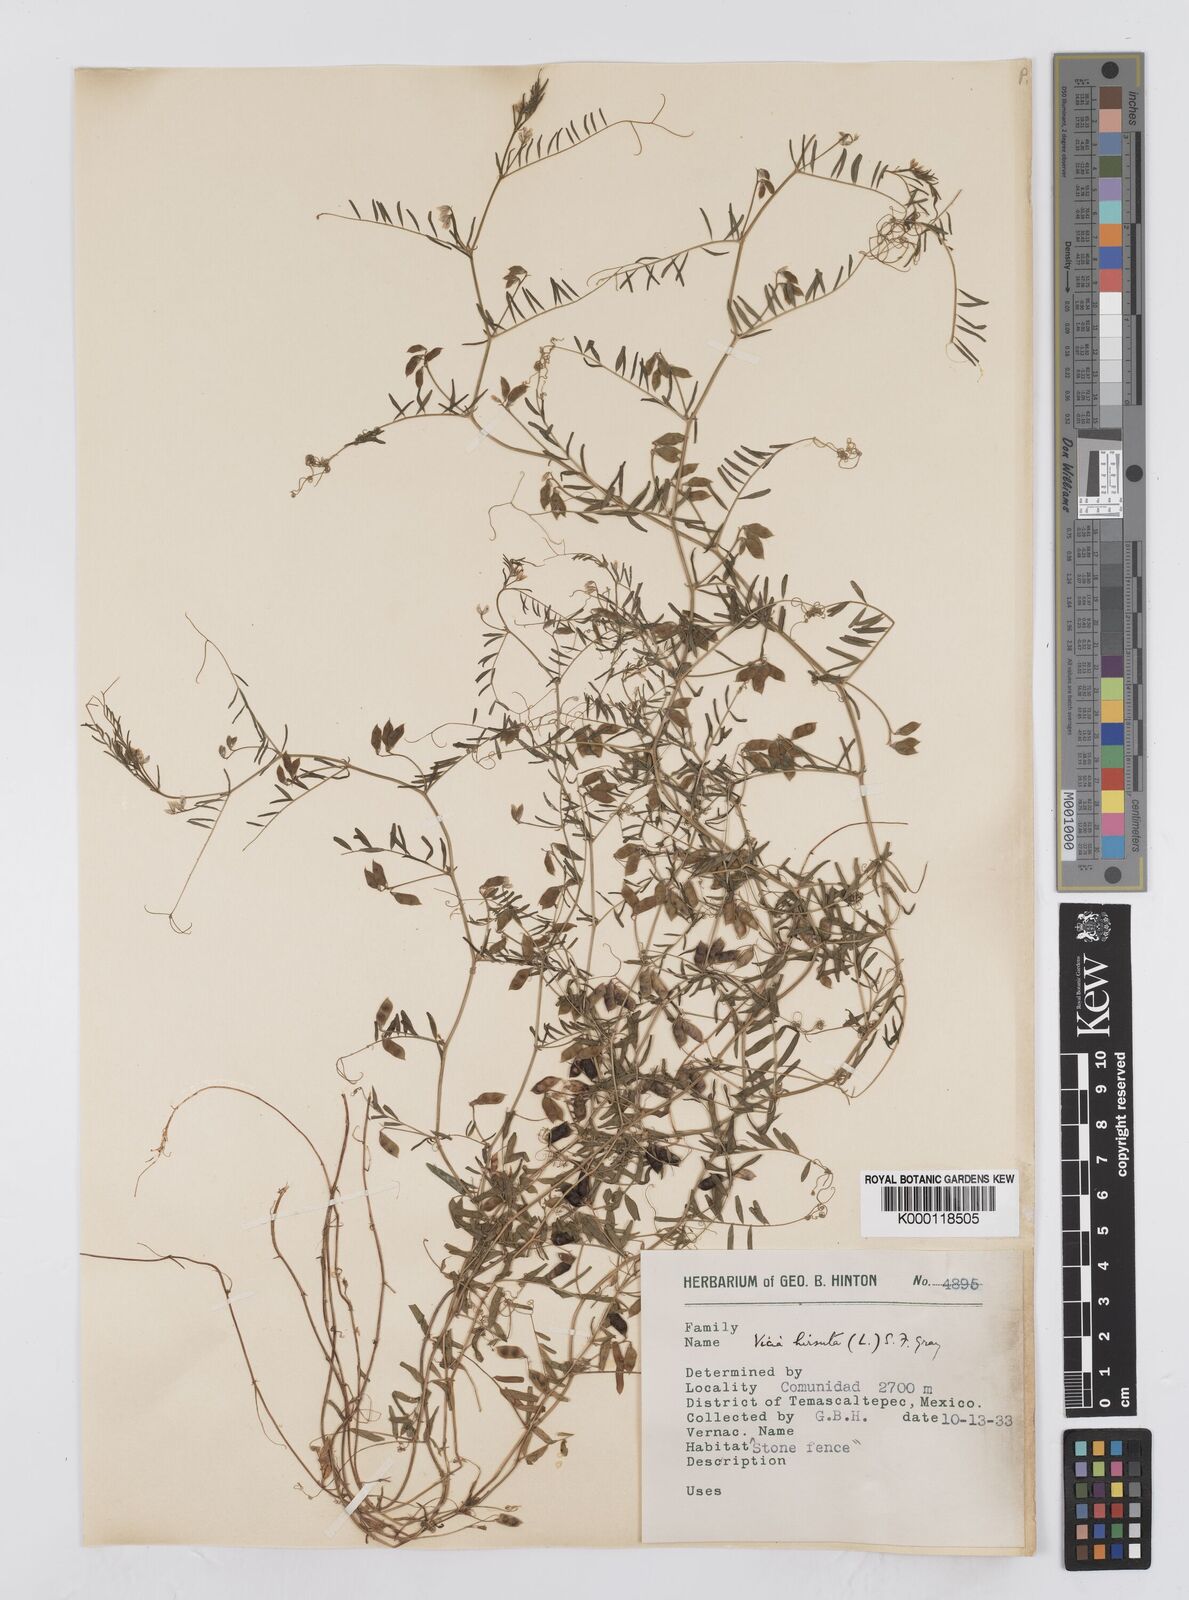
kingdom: Plantae
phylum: Tracheophyta
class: Magnoliopsida
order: Fabales
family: Fabaceae
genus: Vicia
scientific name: Vicia hirsuta
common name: Tiny vetch
